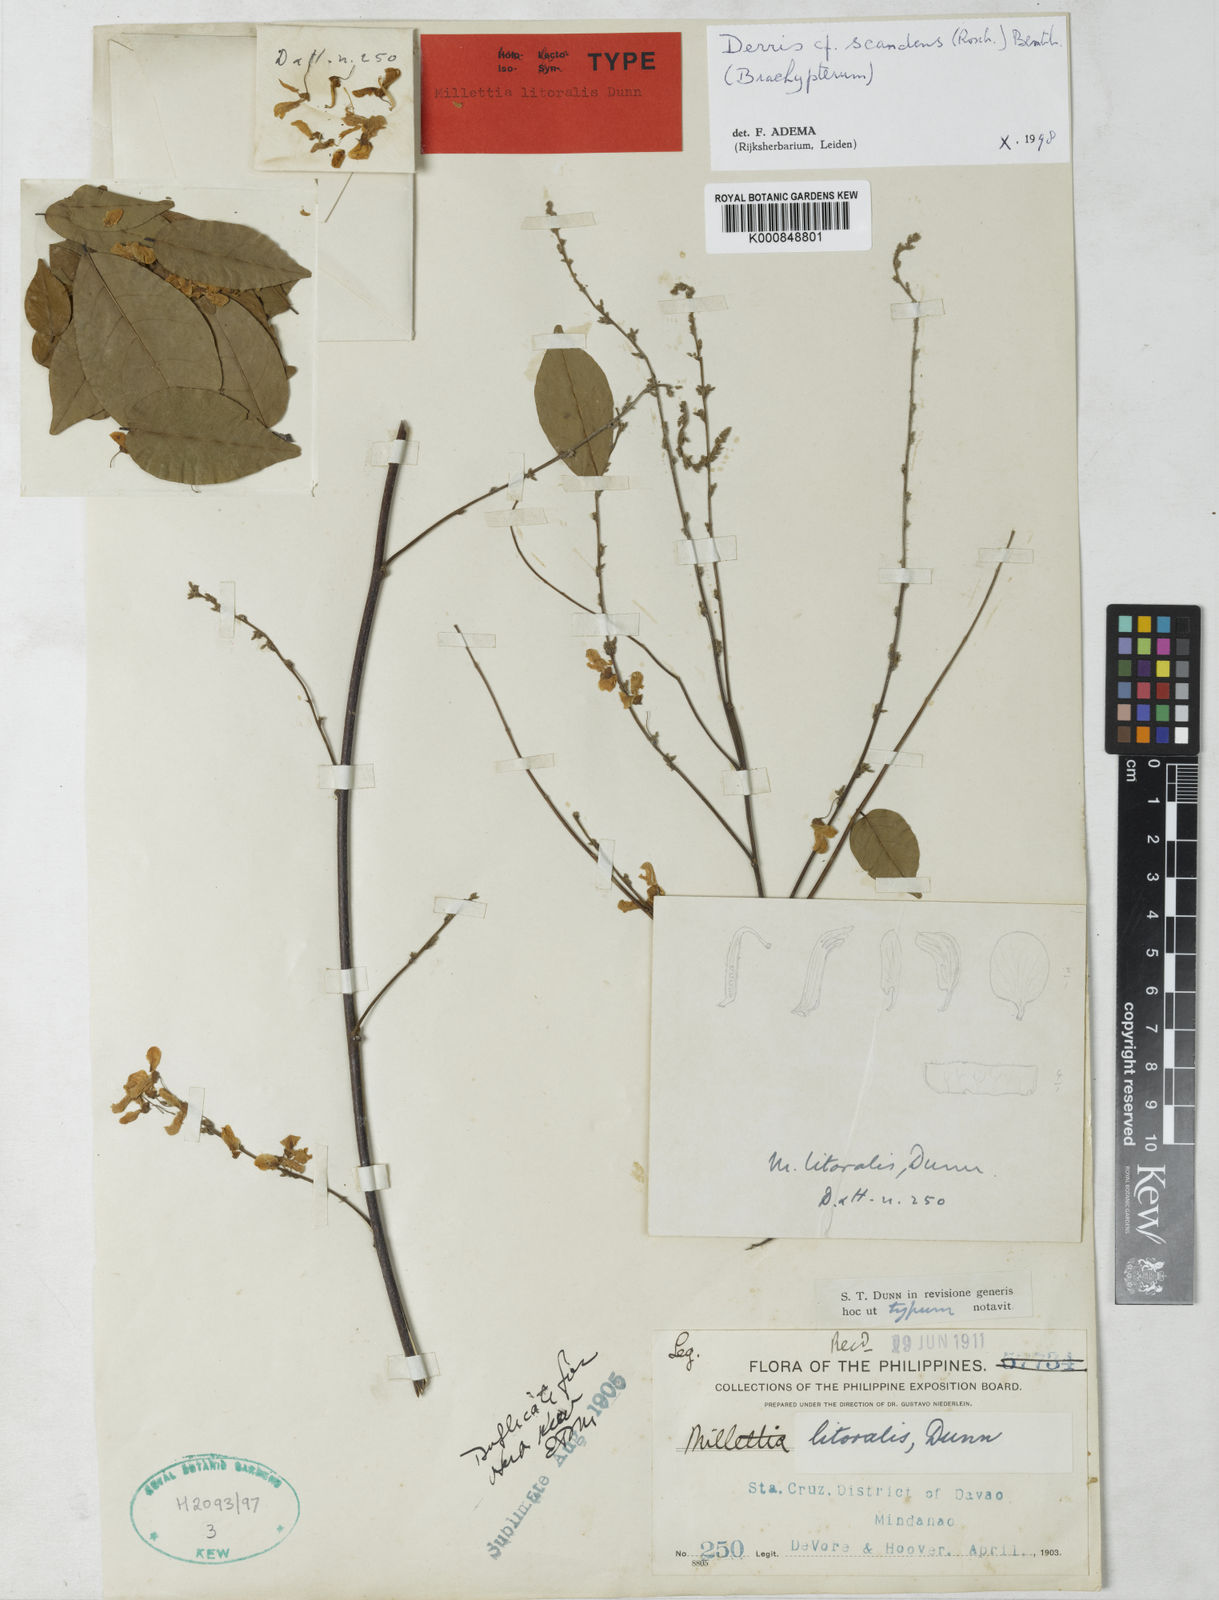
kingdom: Plantae
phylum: Tracheophyta
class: Magnoliopsida
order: Fabales
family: Fabaceae
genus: Brachypterum
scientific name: Brachypterum scandens
